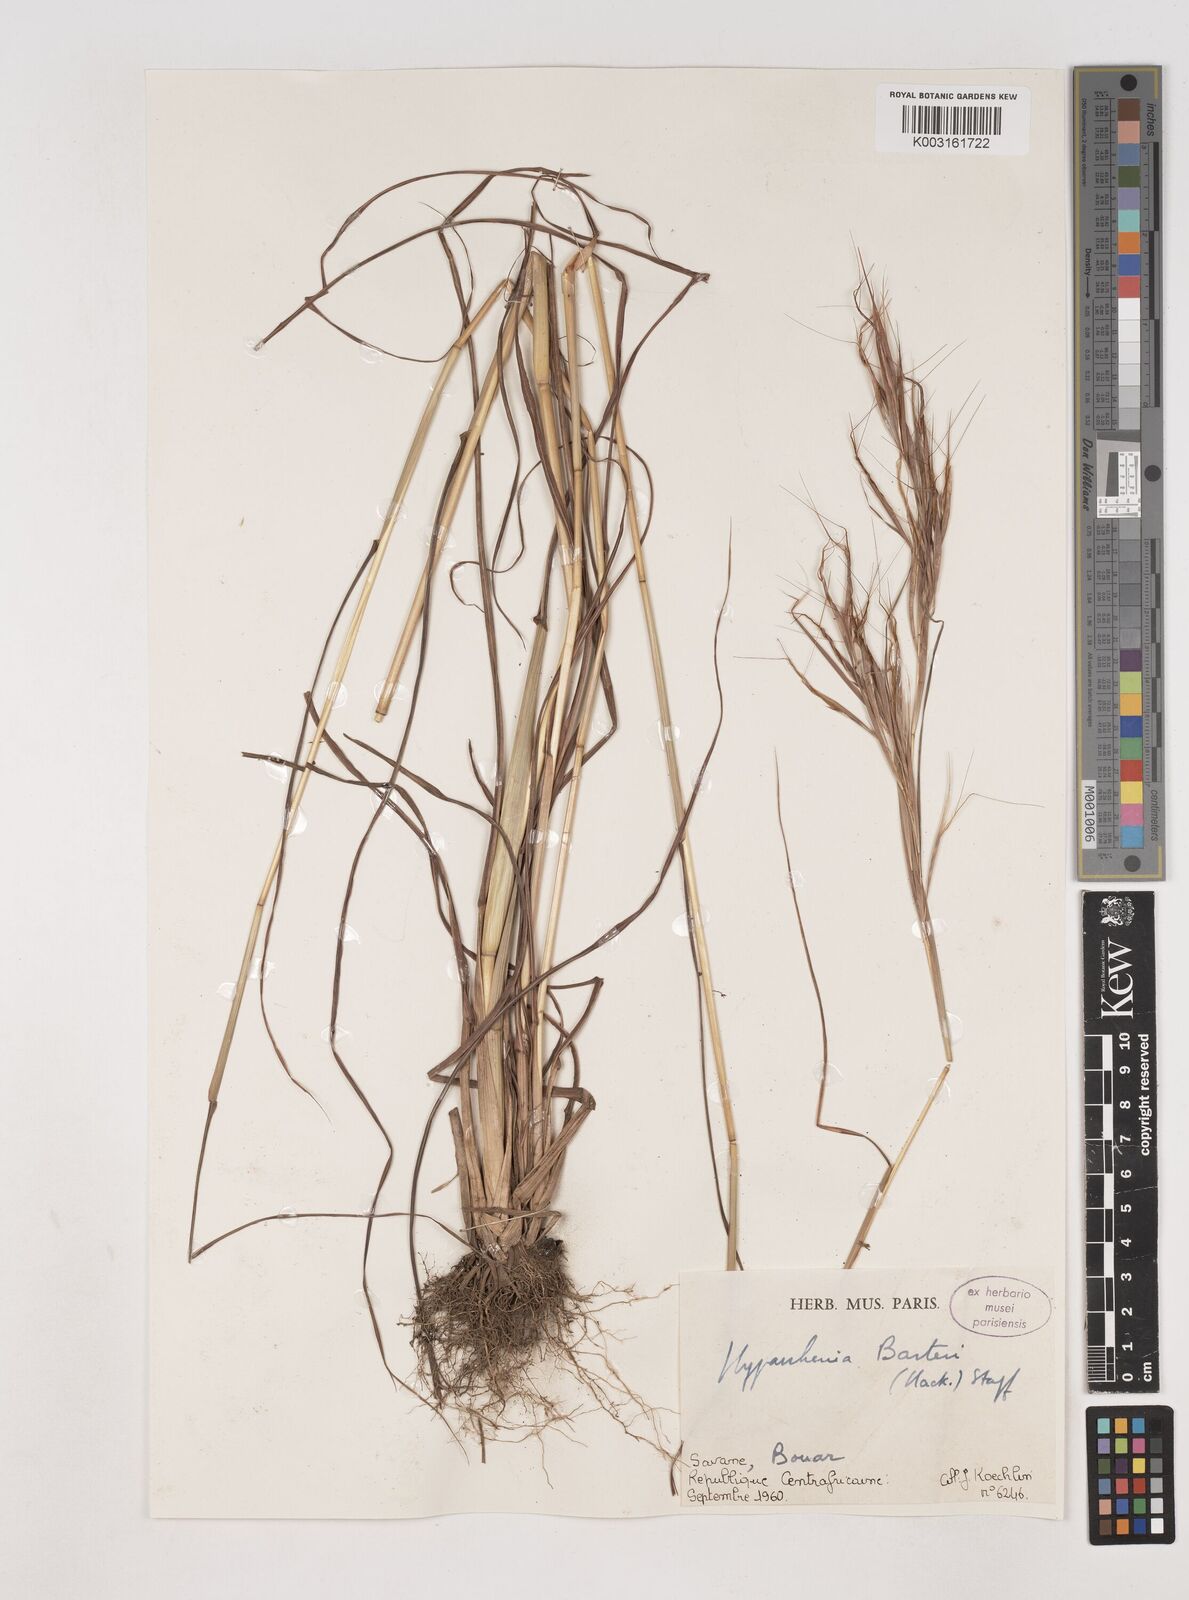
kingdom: Plantae
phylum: Tracheophyta
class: Liliopsida
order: Poales
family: Poaceae
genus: Hyparrhenia
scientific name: Hyparrhenia barteri
